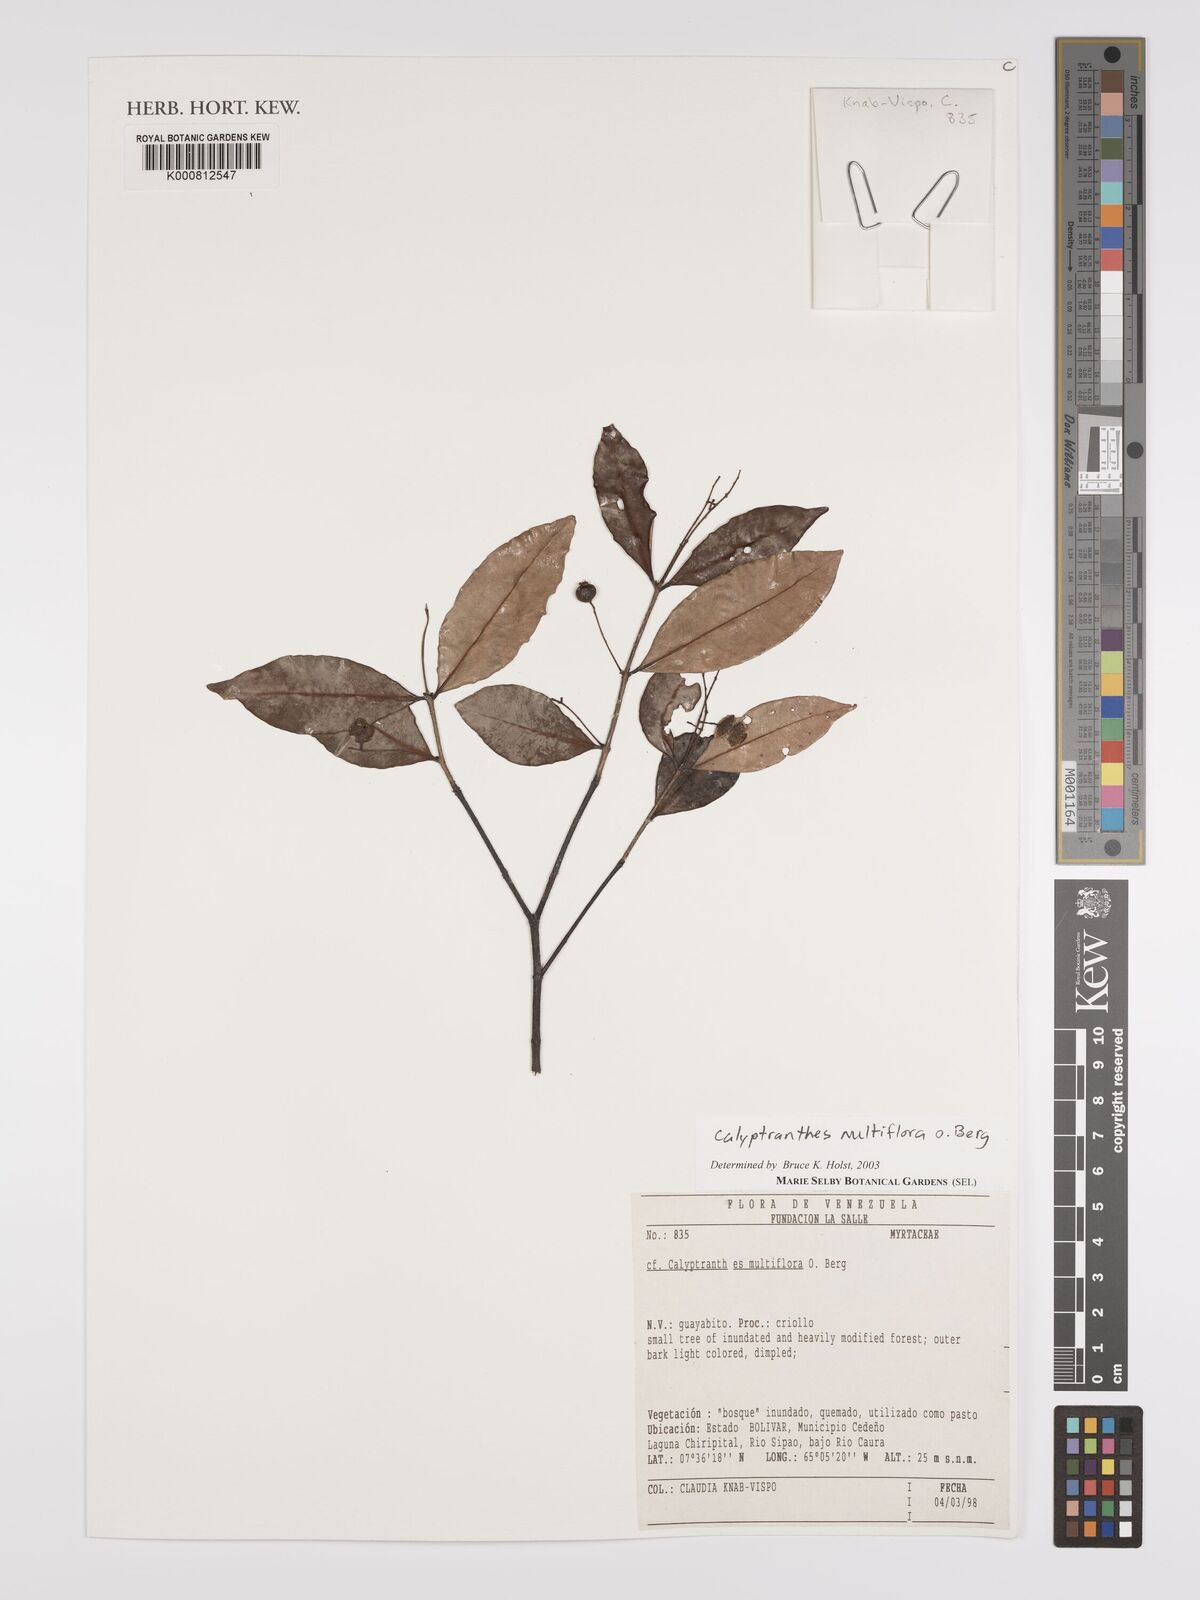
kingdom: Plantae
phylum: Tracheophyta
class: Magnoliopsida
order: Myrtales
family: Myrtaceae
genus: Myrcia
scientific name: Myrcia aulomyrcioides
